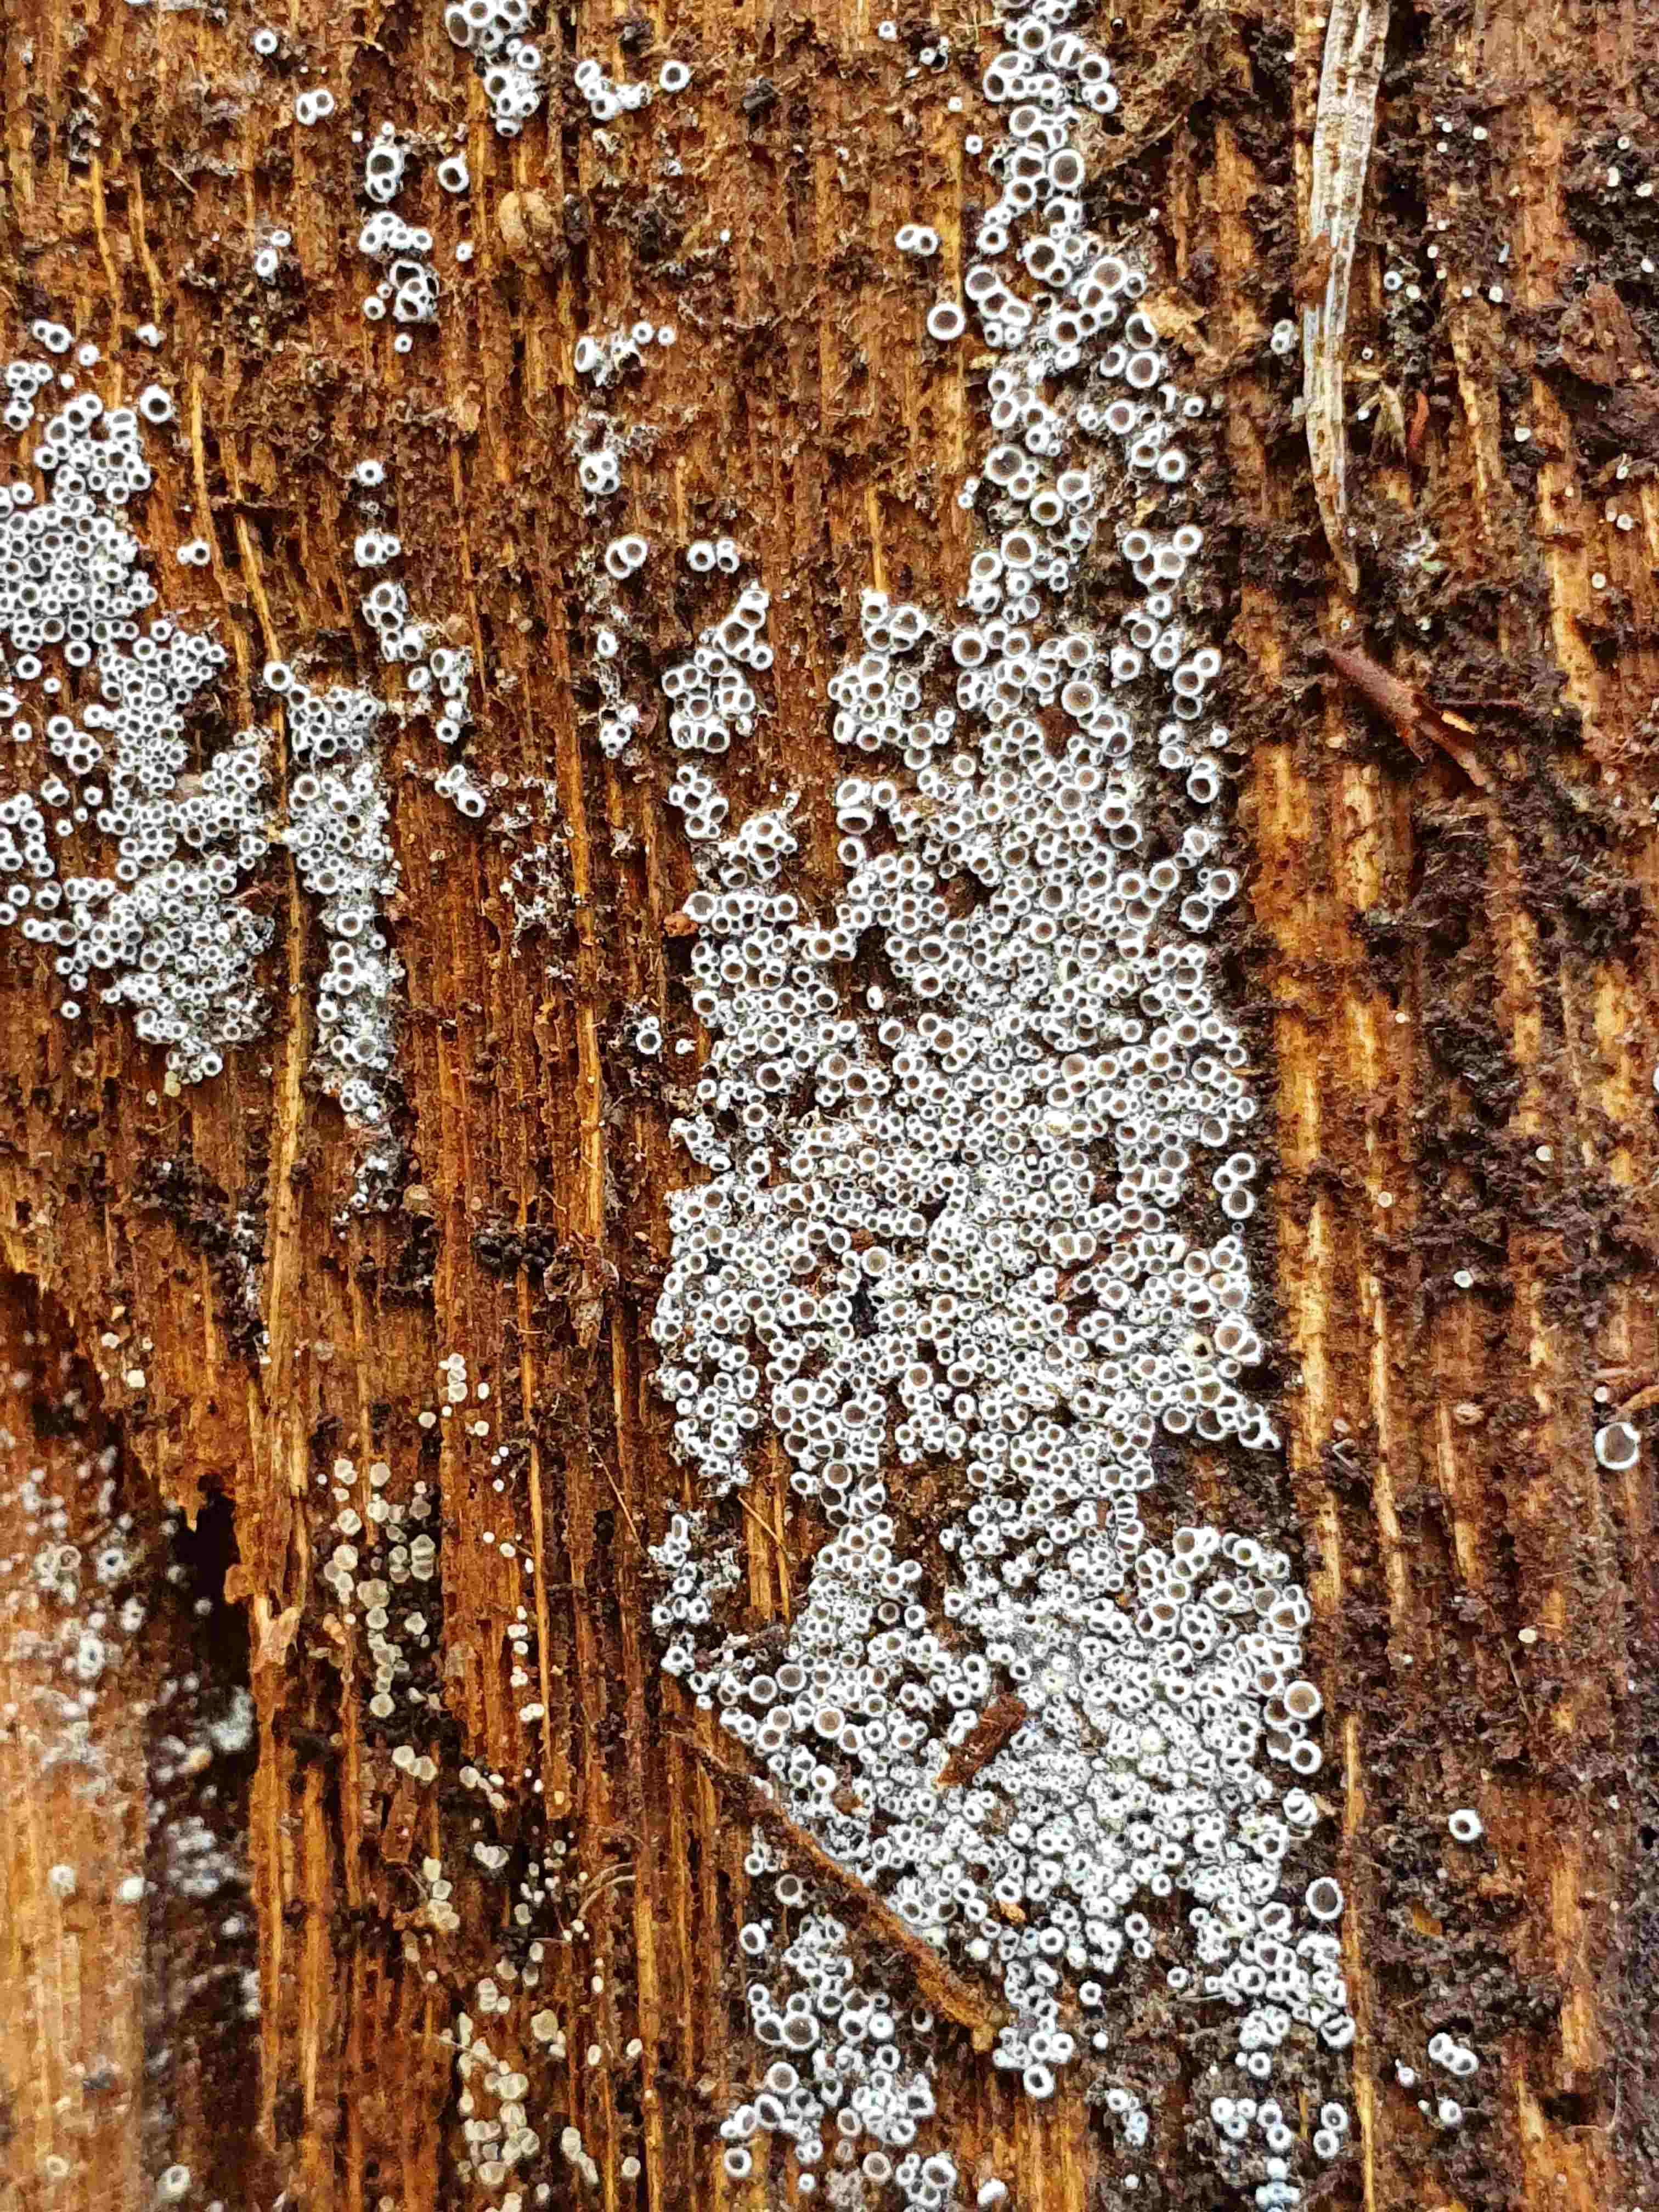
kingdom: Fungi
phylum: Ascomycota
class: Leotiomycetes
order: Helotiales
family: Arachnopezizaceae
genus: Eriopezia
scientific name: Eriopezia caesia
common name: ege-spindskive
